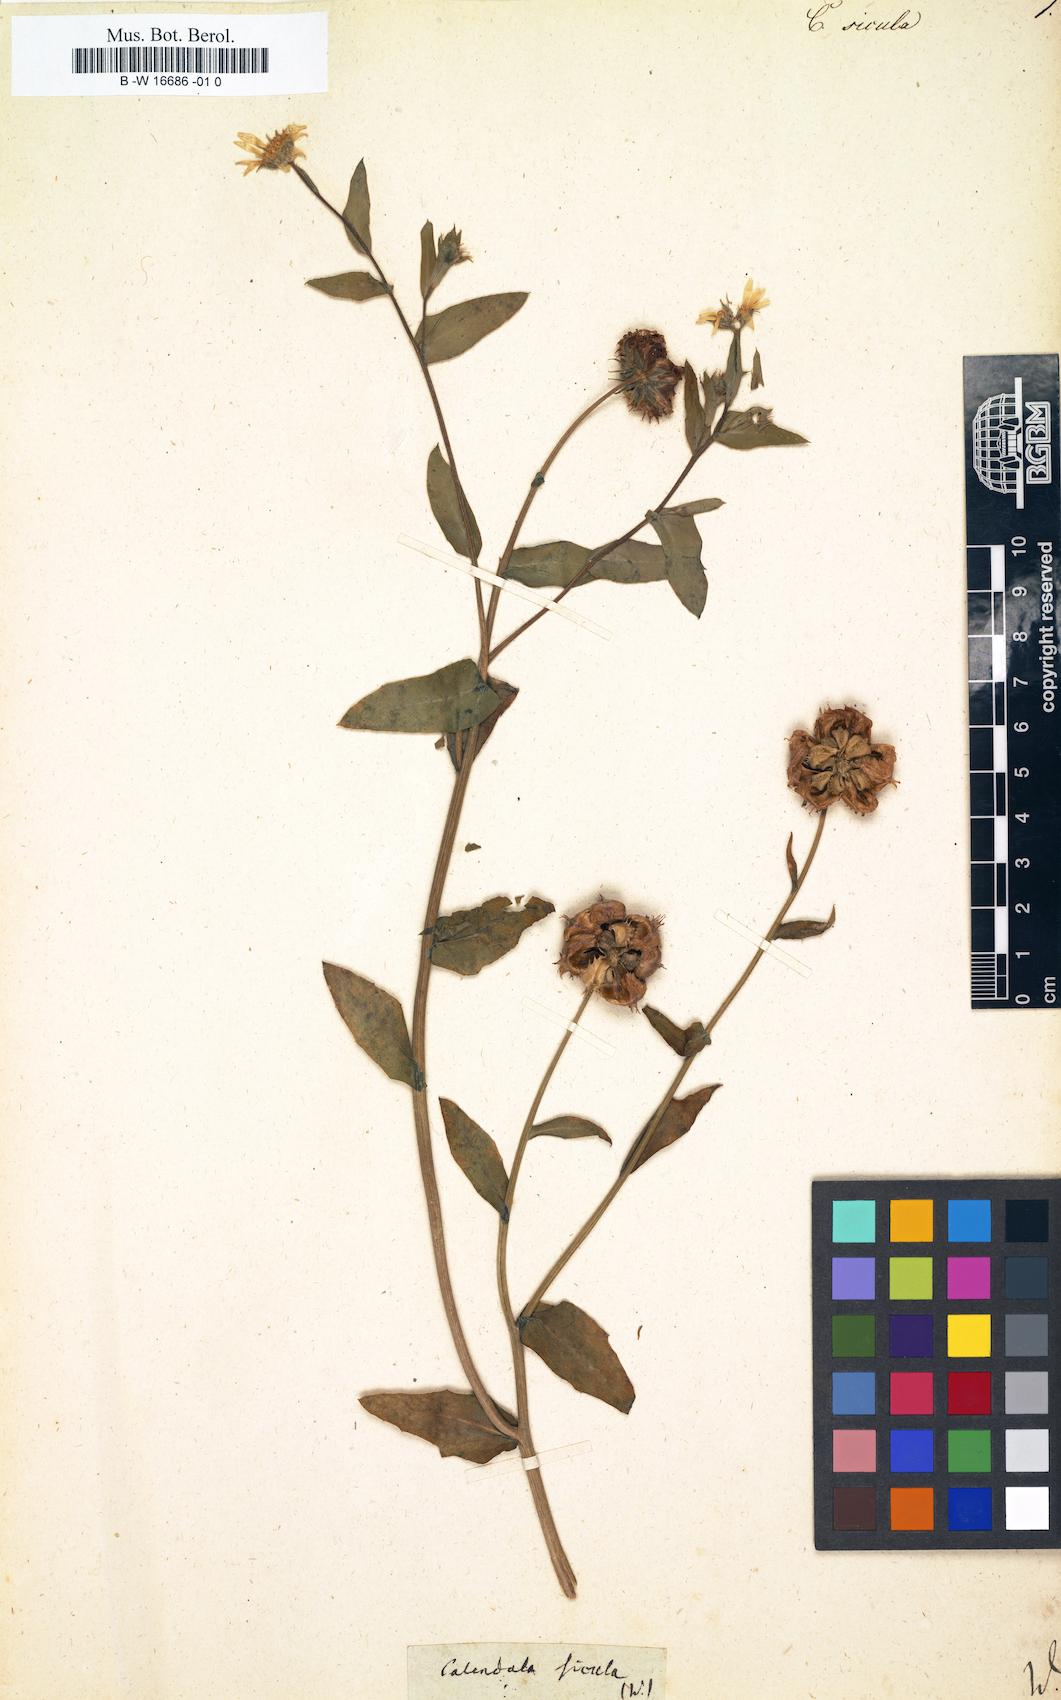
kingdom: Plantae
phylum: Tracheophyta
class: Magnoliopsida
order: Asterales
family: Asteraceae
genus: Calendula
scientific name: Calendula
